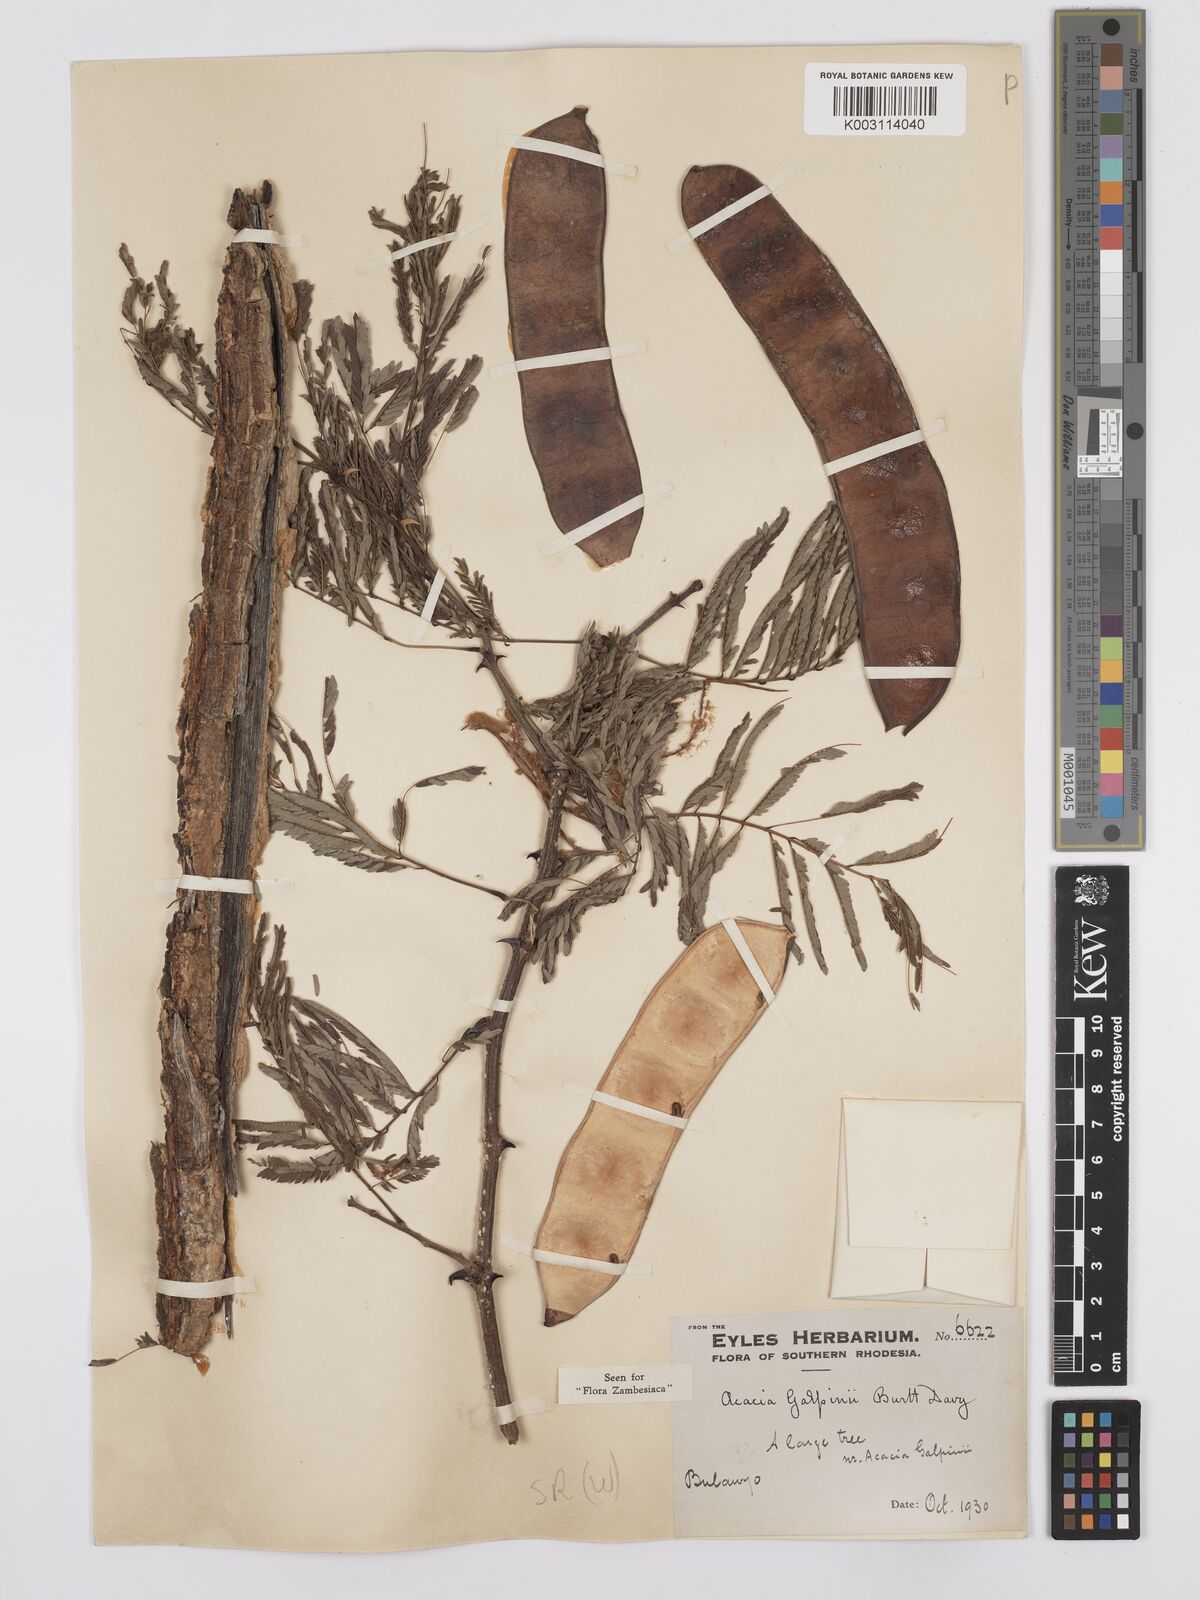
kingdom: Plantae
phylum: Tracheophyta
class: Magnoliopsida
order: Fabales
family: Fabaceae
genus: Senegalia
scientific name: Senegalia galpinii
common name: Monkey-thorn
